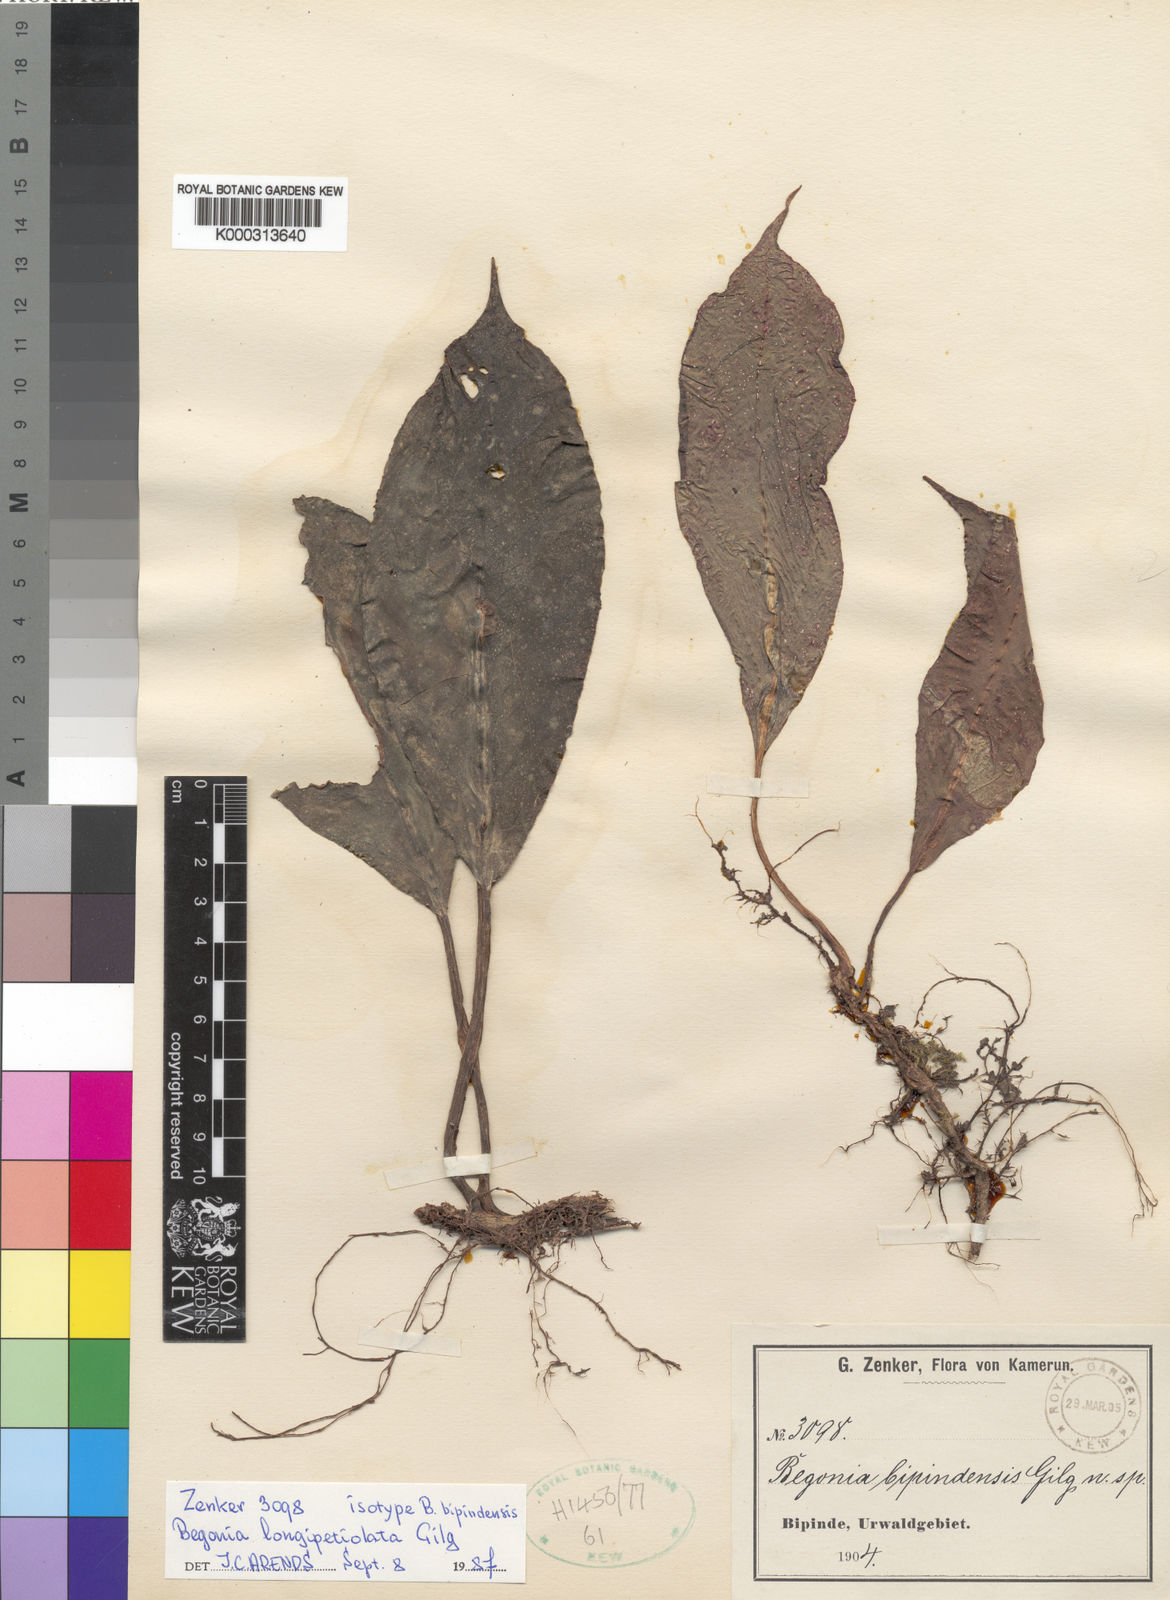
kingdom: Plantae
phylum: Tracheophyta
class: Magnoliopsida
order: Cucurbitales
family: Begoniaceae
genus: Begonia
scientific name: Begonia longipetiolata
